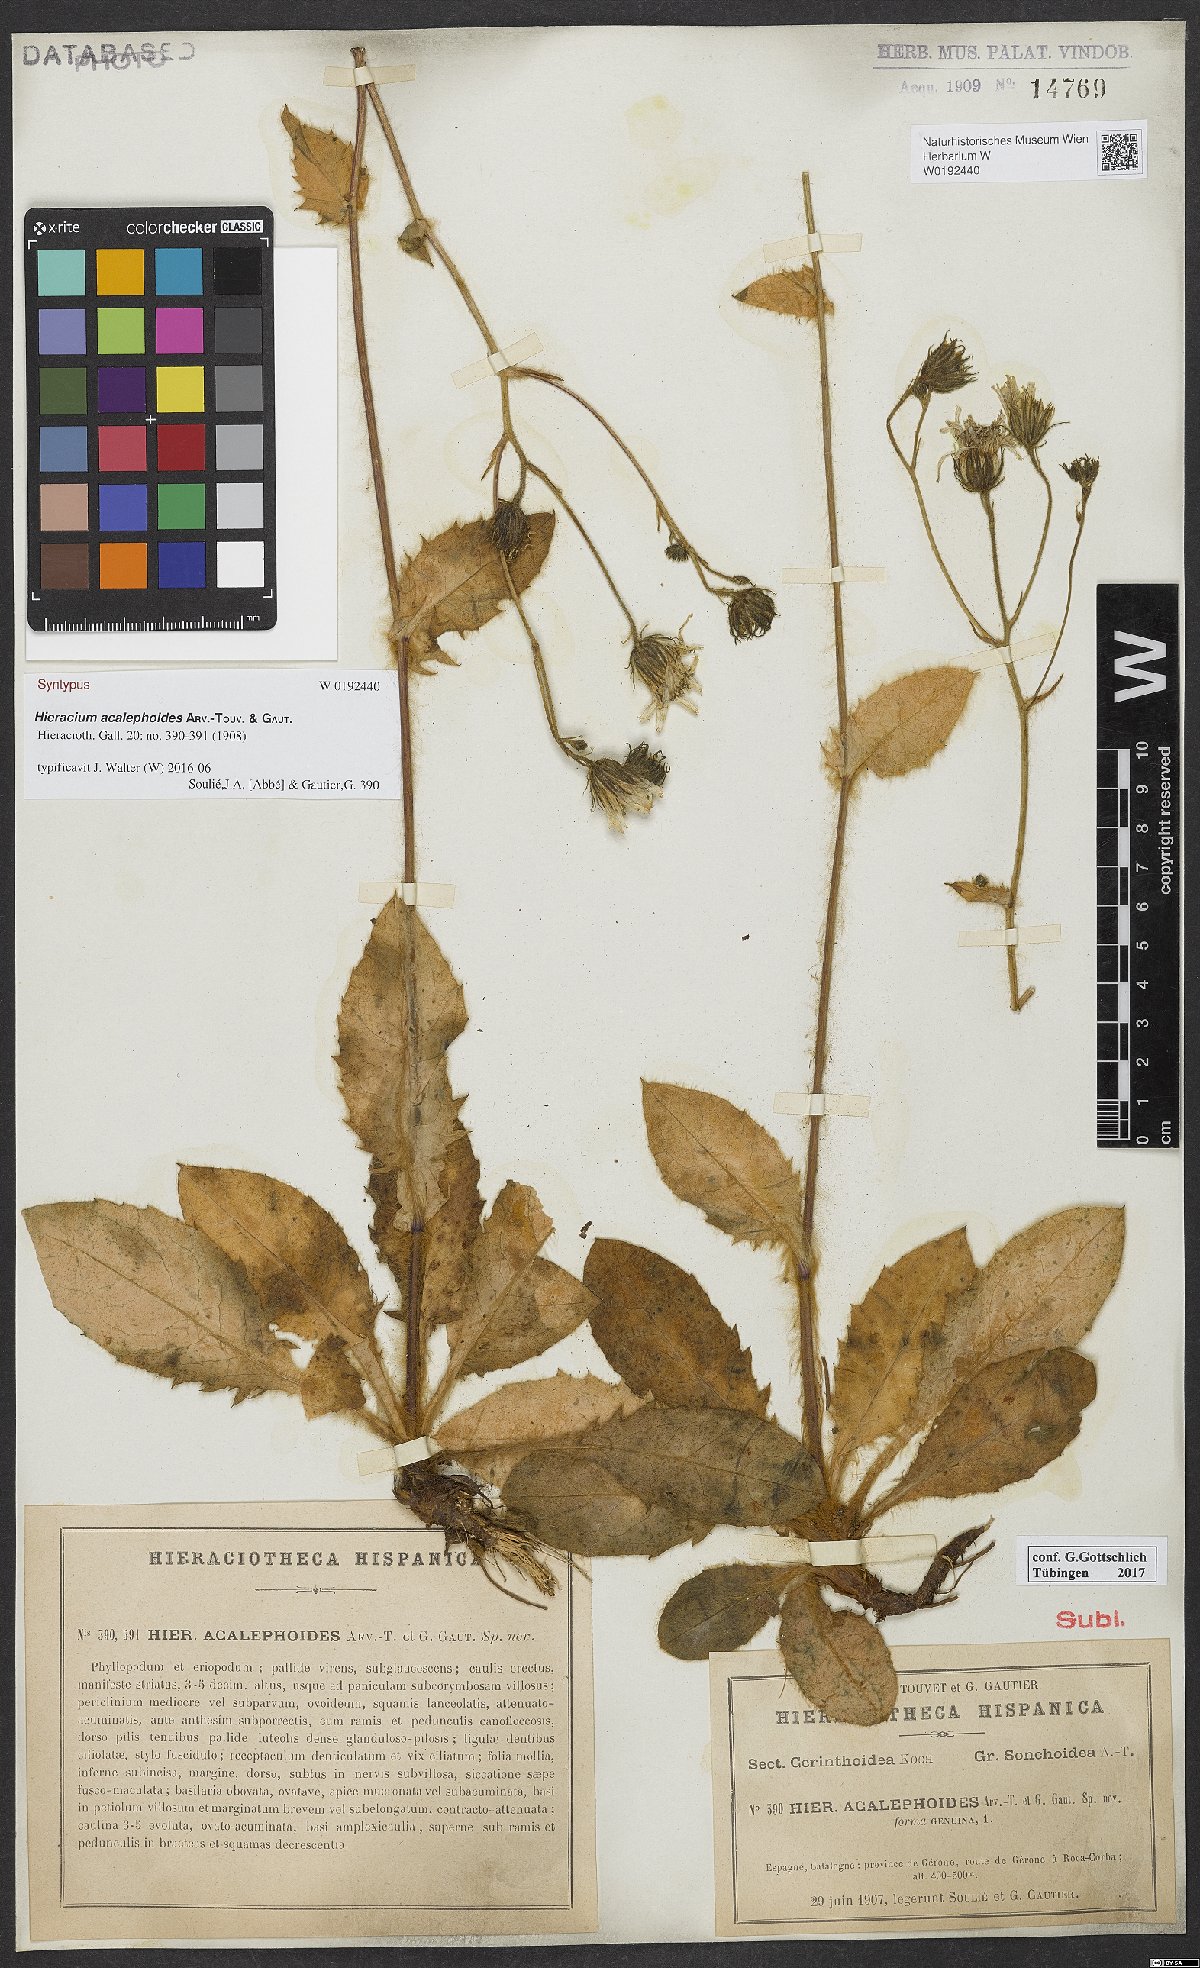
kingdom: Plantae
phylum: Tracheophyta
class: Magnoliopsida
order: Asterales
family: Asteraceae
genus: Hieracium
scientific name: Hieracium acalephoides
